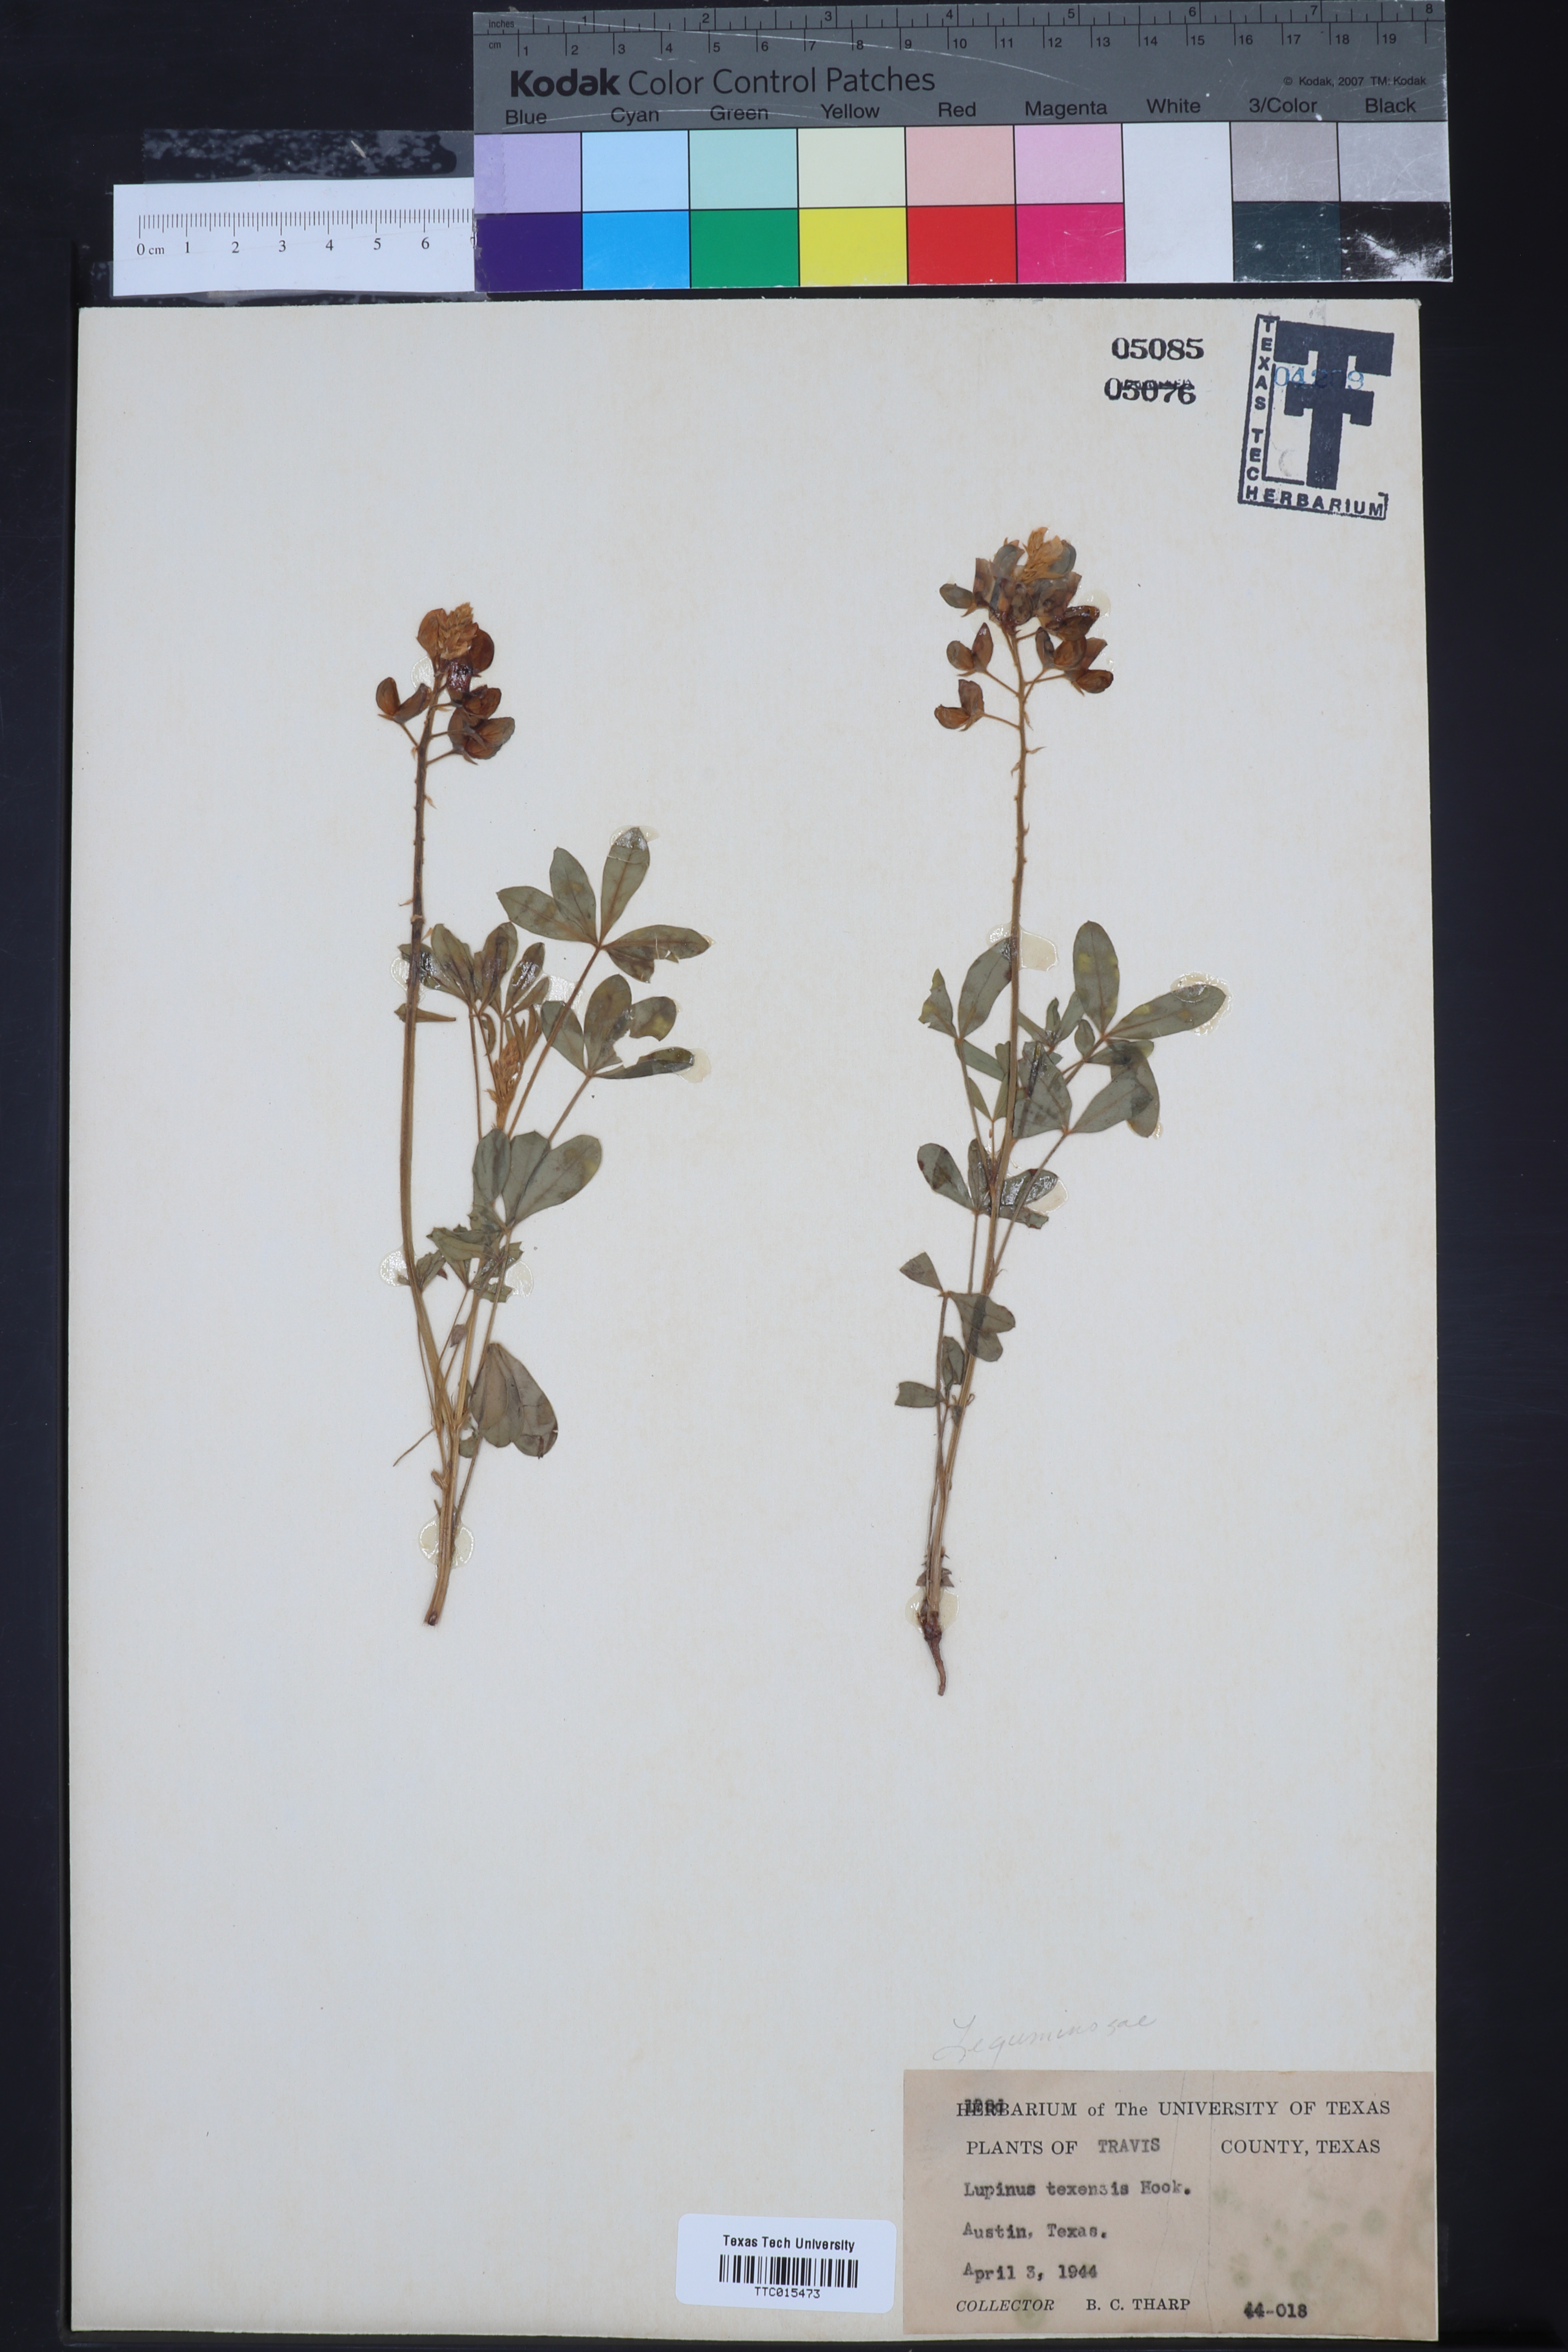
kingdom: Plantae
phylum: Tracheophyta
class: Magnoliopsida
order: Fabales
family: Fabaceae
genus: Lupinus
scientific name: Lupinus texensis
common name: Texas bluebonnet
